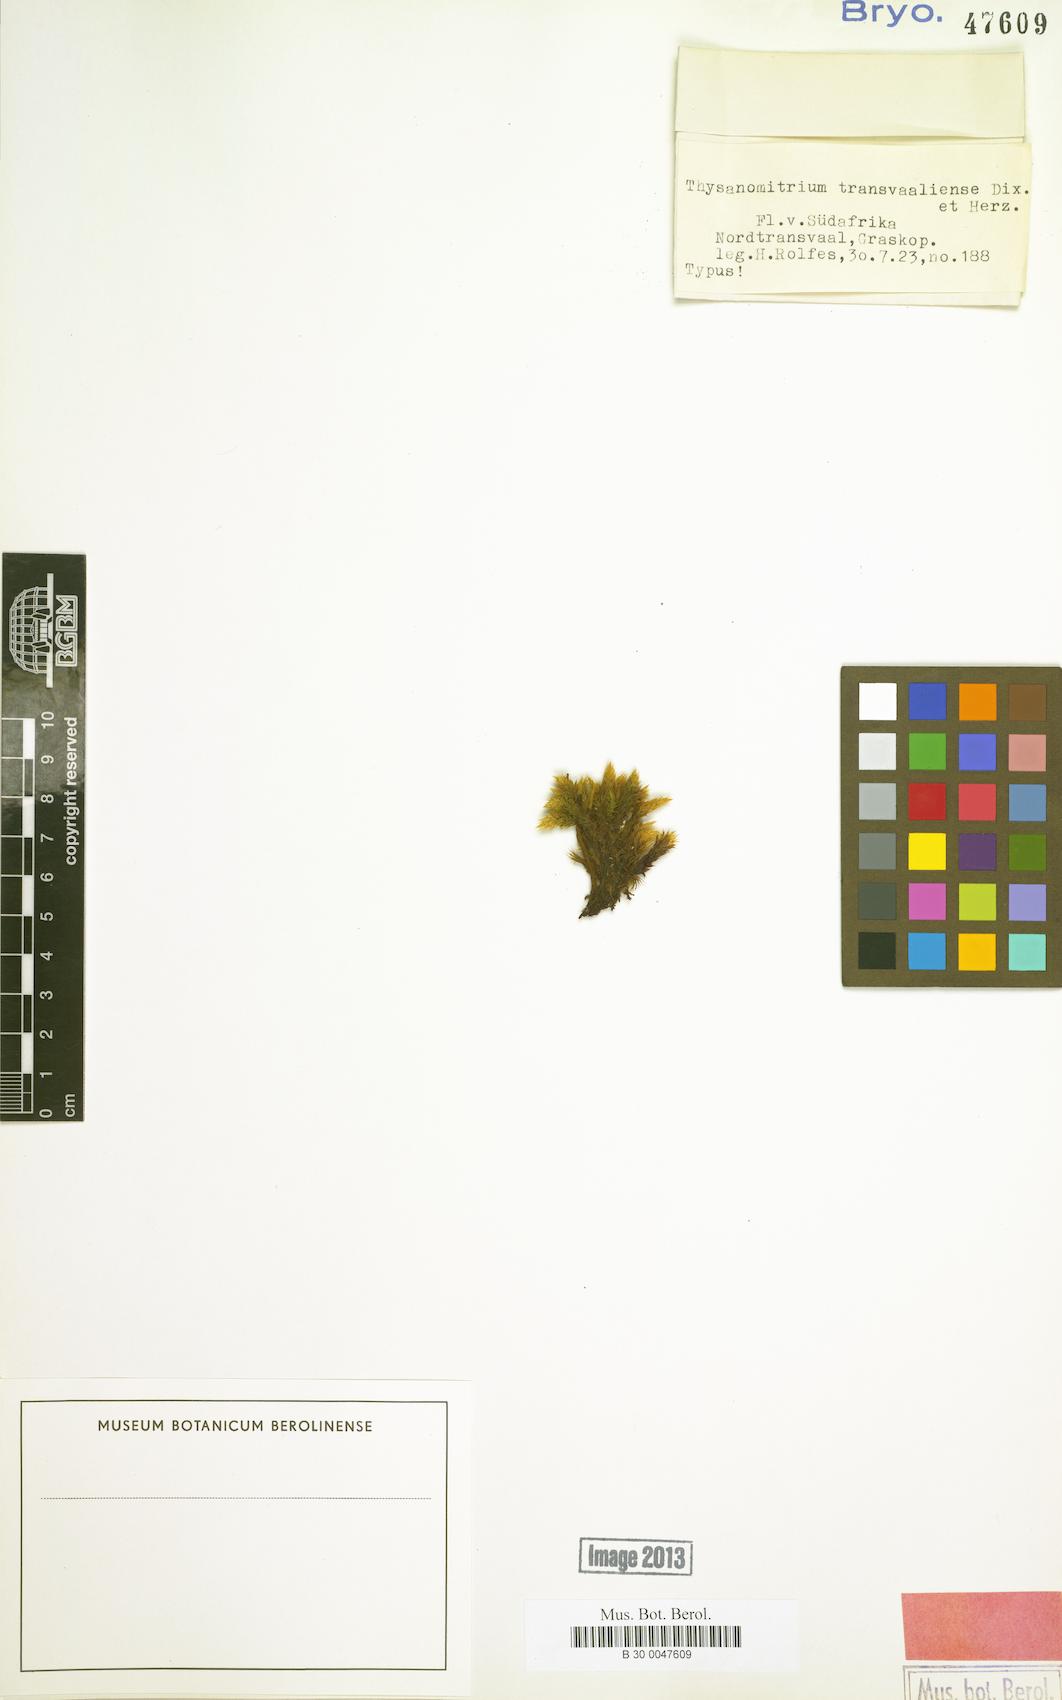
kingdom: Plantae
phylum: Bryophyta
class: Bryopsida
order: Dicranales
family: Dicranaceae
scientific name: Dicranaceae
